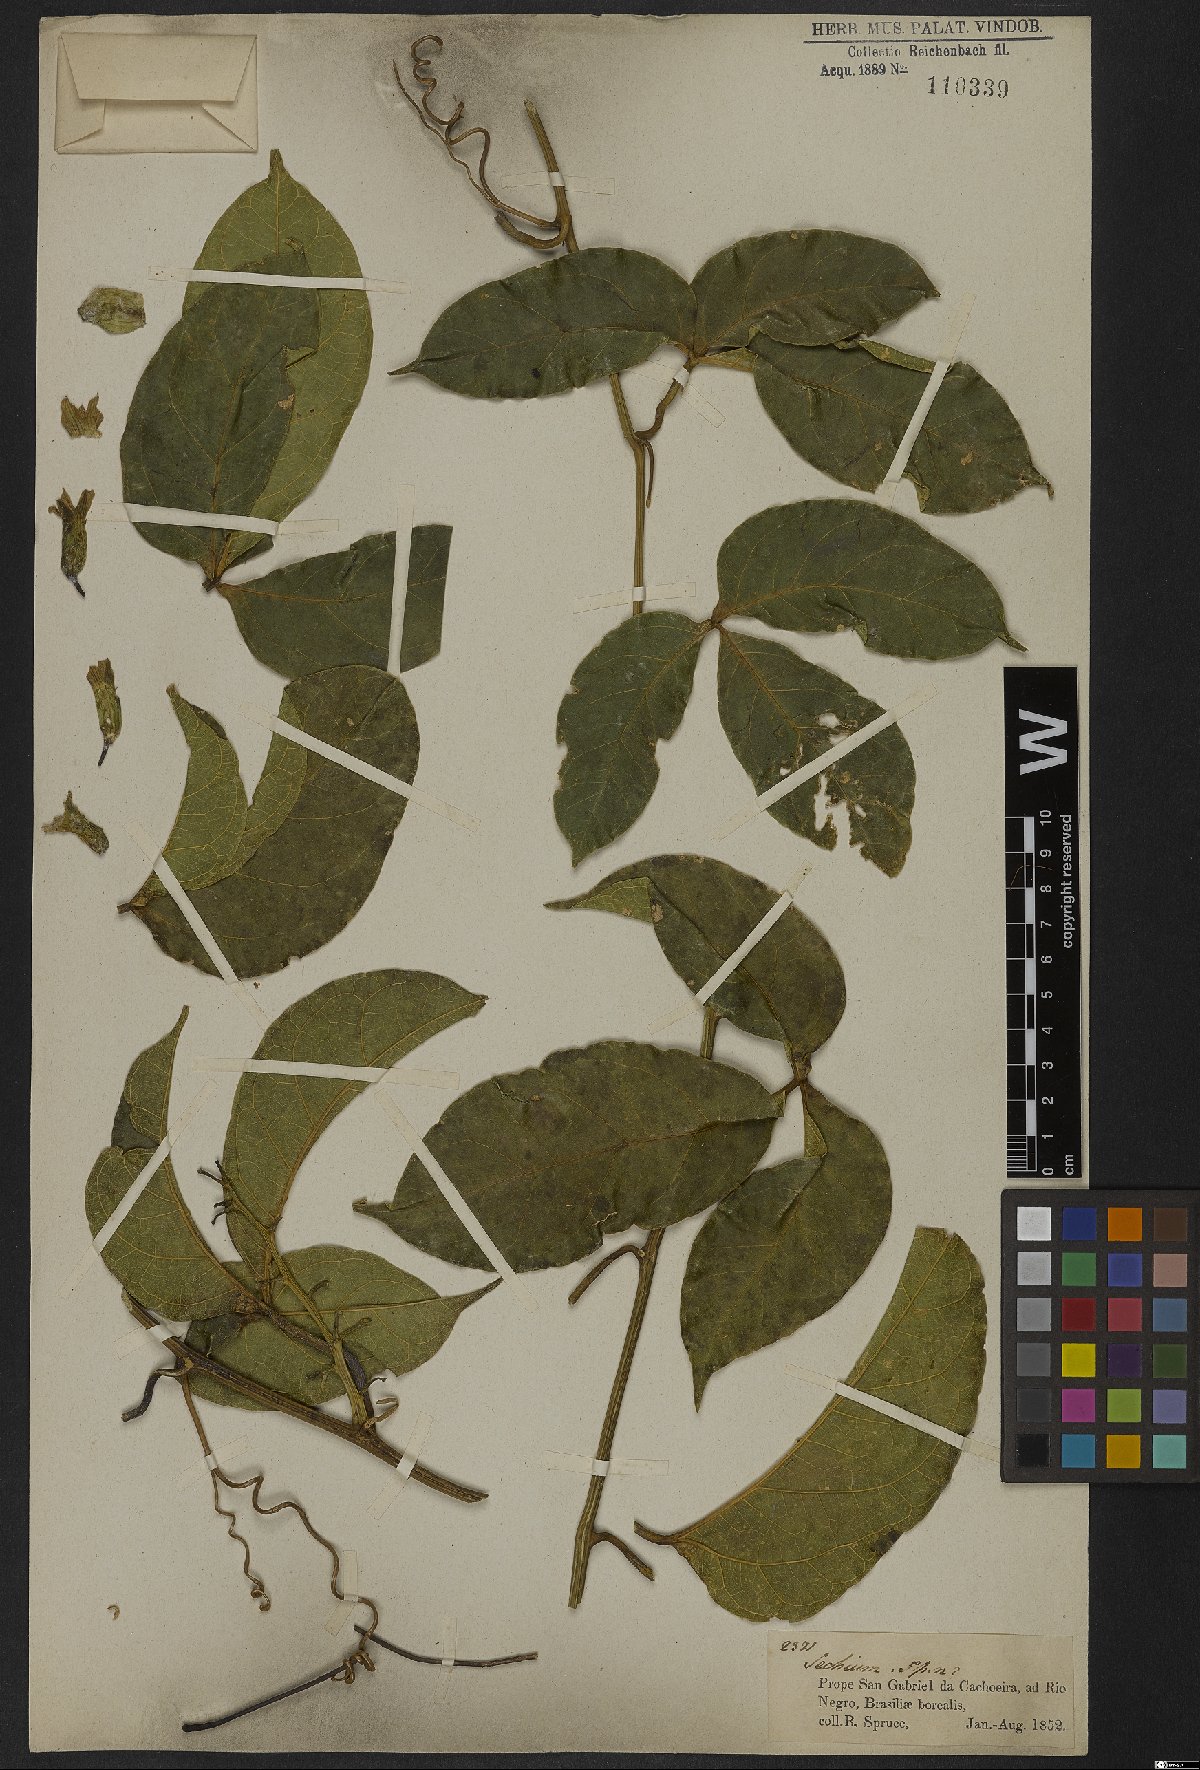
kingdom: Plantae
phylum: Tracheophyta
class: Magnoliopsida
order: Cucurbitales
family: Cucurbitaceae
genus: Cayaponia
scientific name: Cayaponia coriacea
